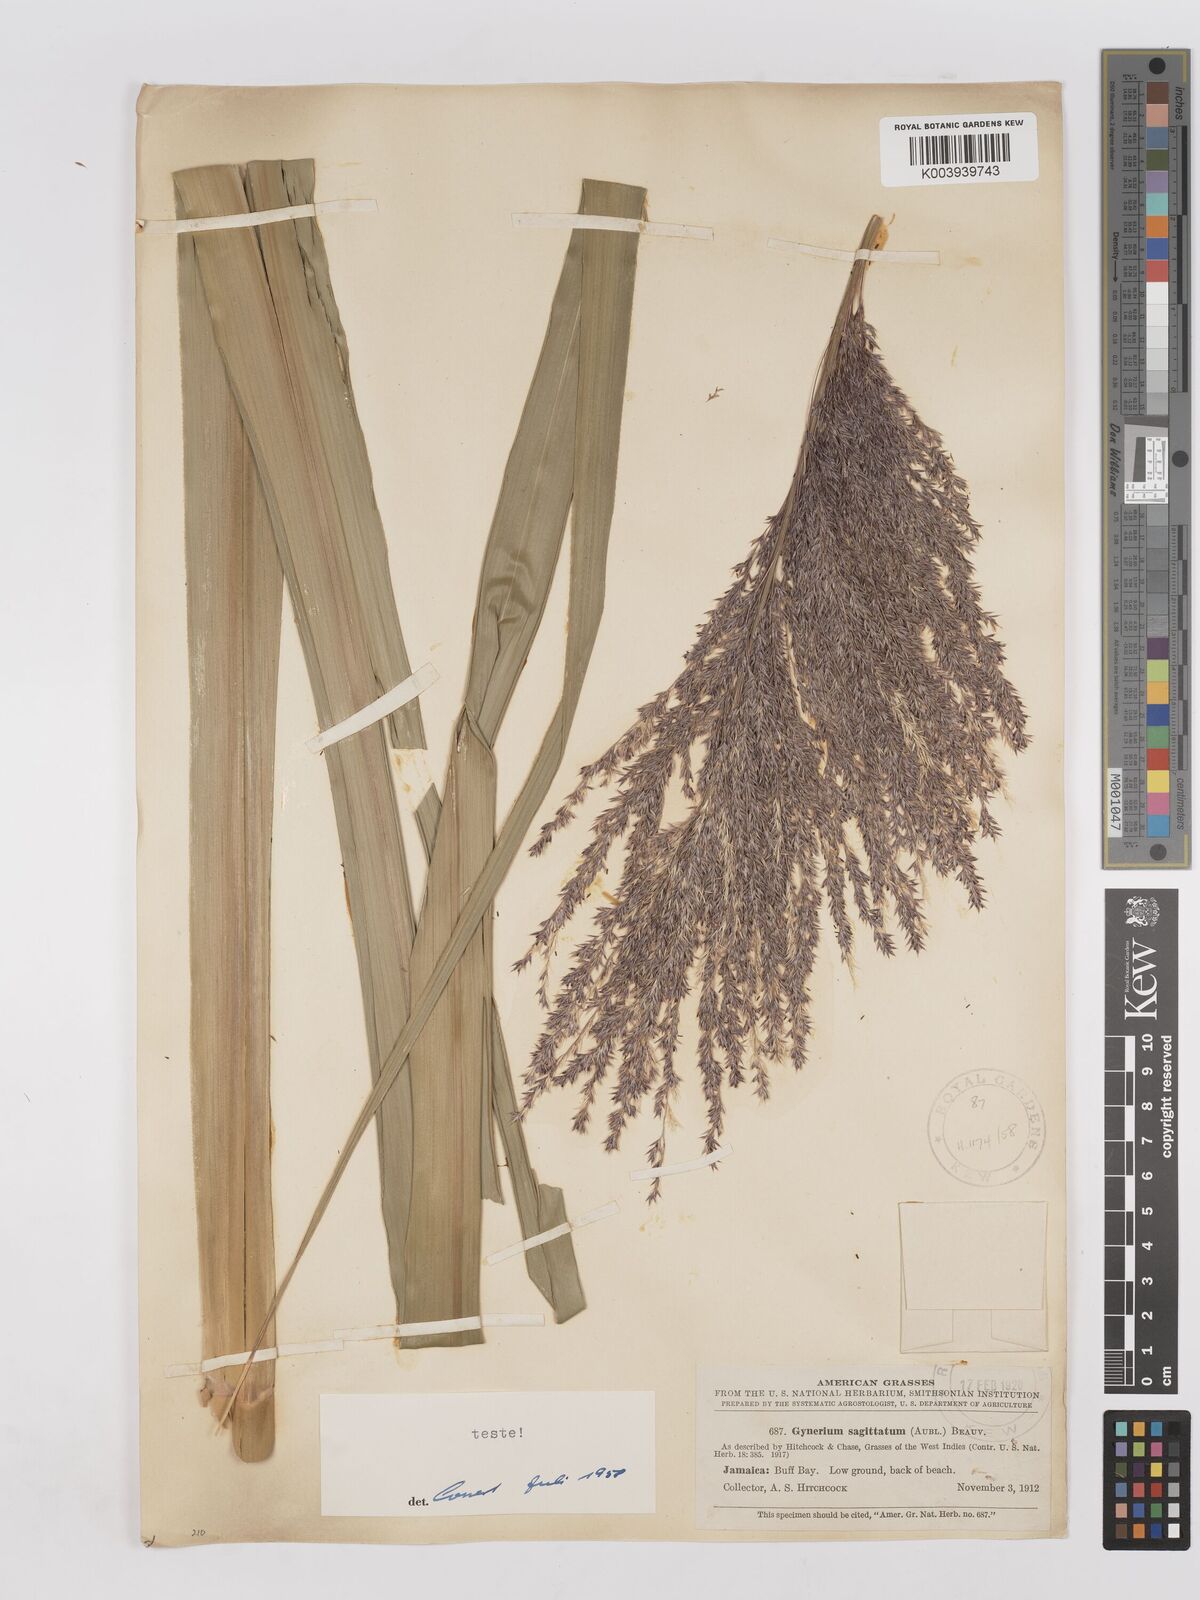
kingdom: Plantae
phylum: Tracheophyta
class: Liliopsida
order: Poales
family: Poaceae
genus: Gynerium
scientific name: Gynerium sagittatum
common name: Wild cane
